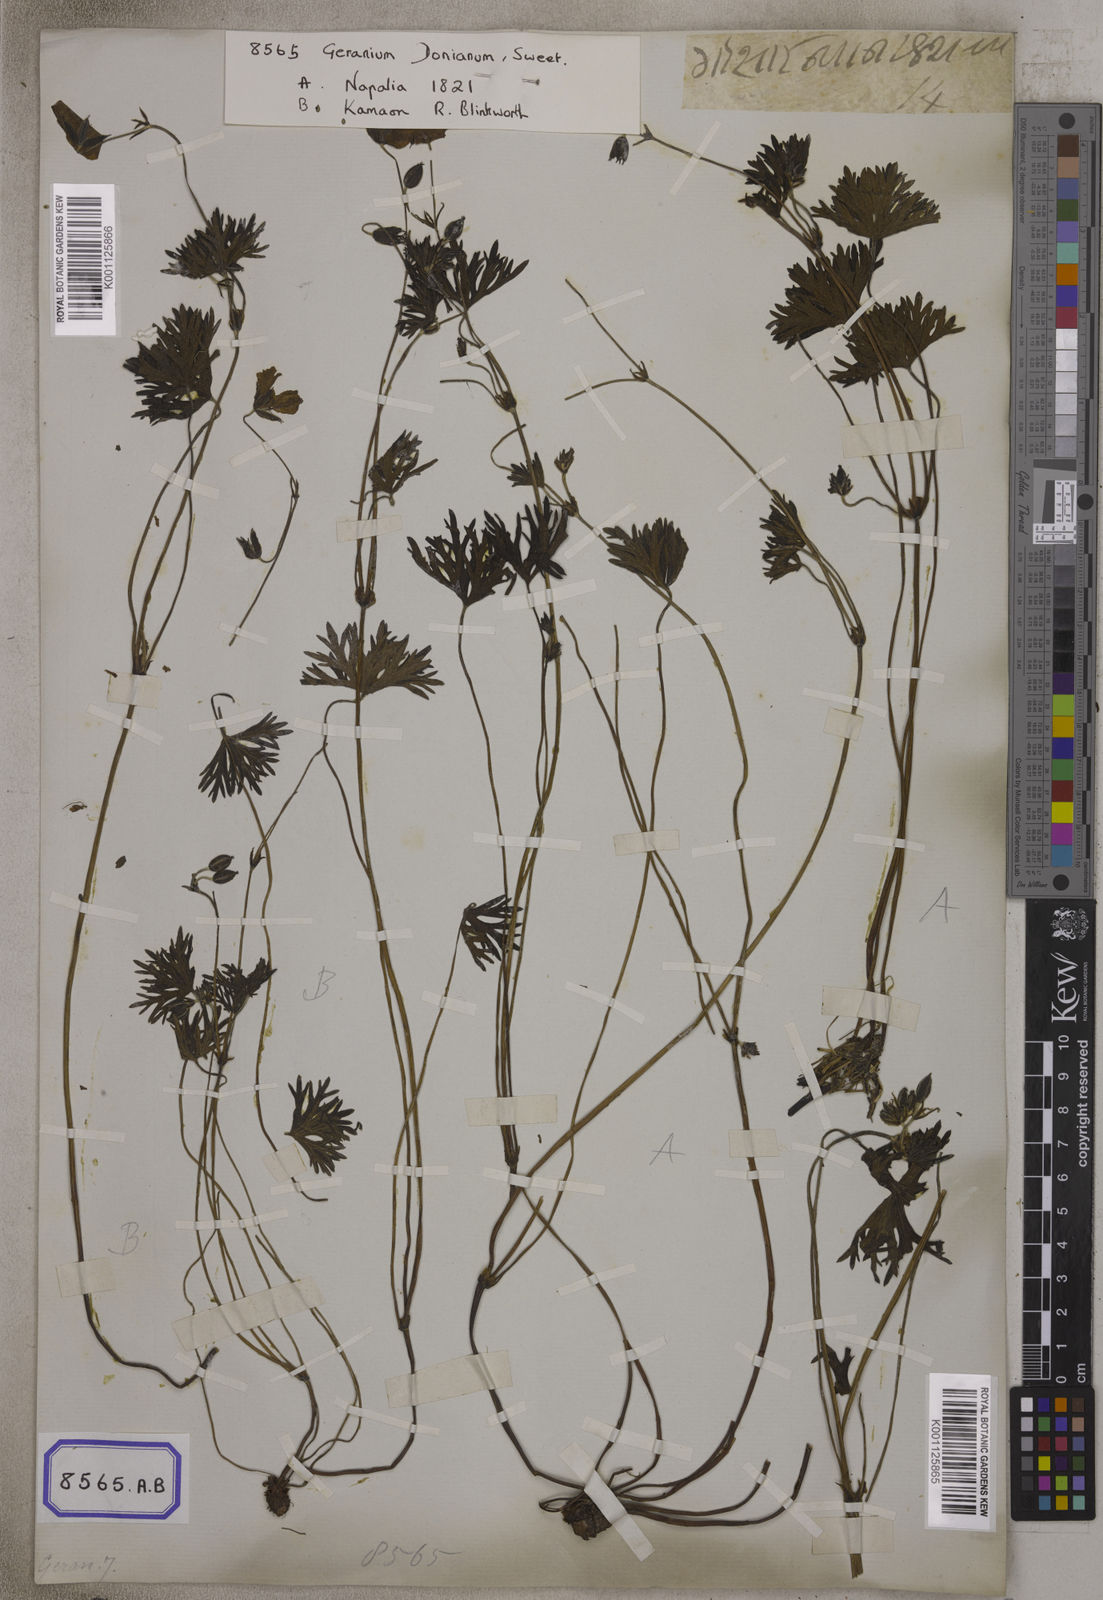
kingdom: Plantae
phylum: Tracheophyta
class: Magnoliopsida
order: Geraniales
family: Geraniaceae
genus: Geranium
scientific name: Geranium donianum
